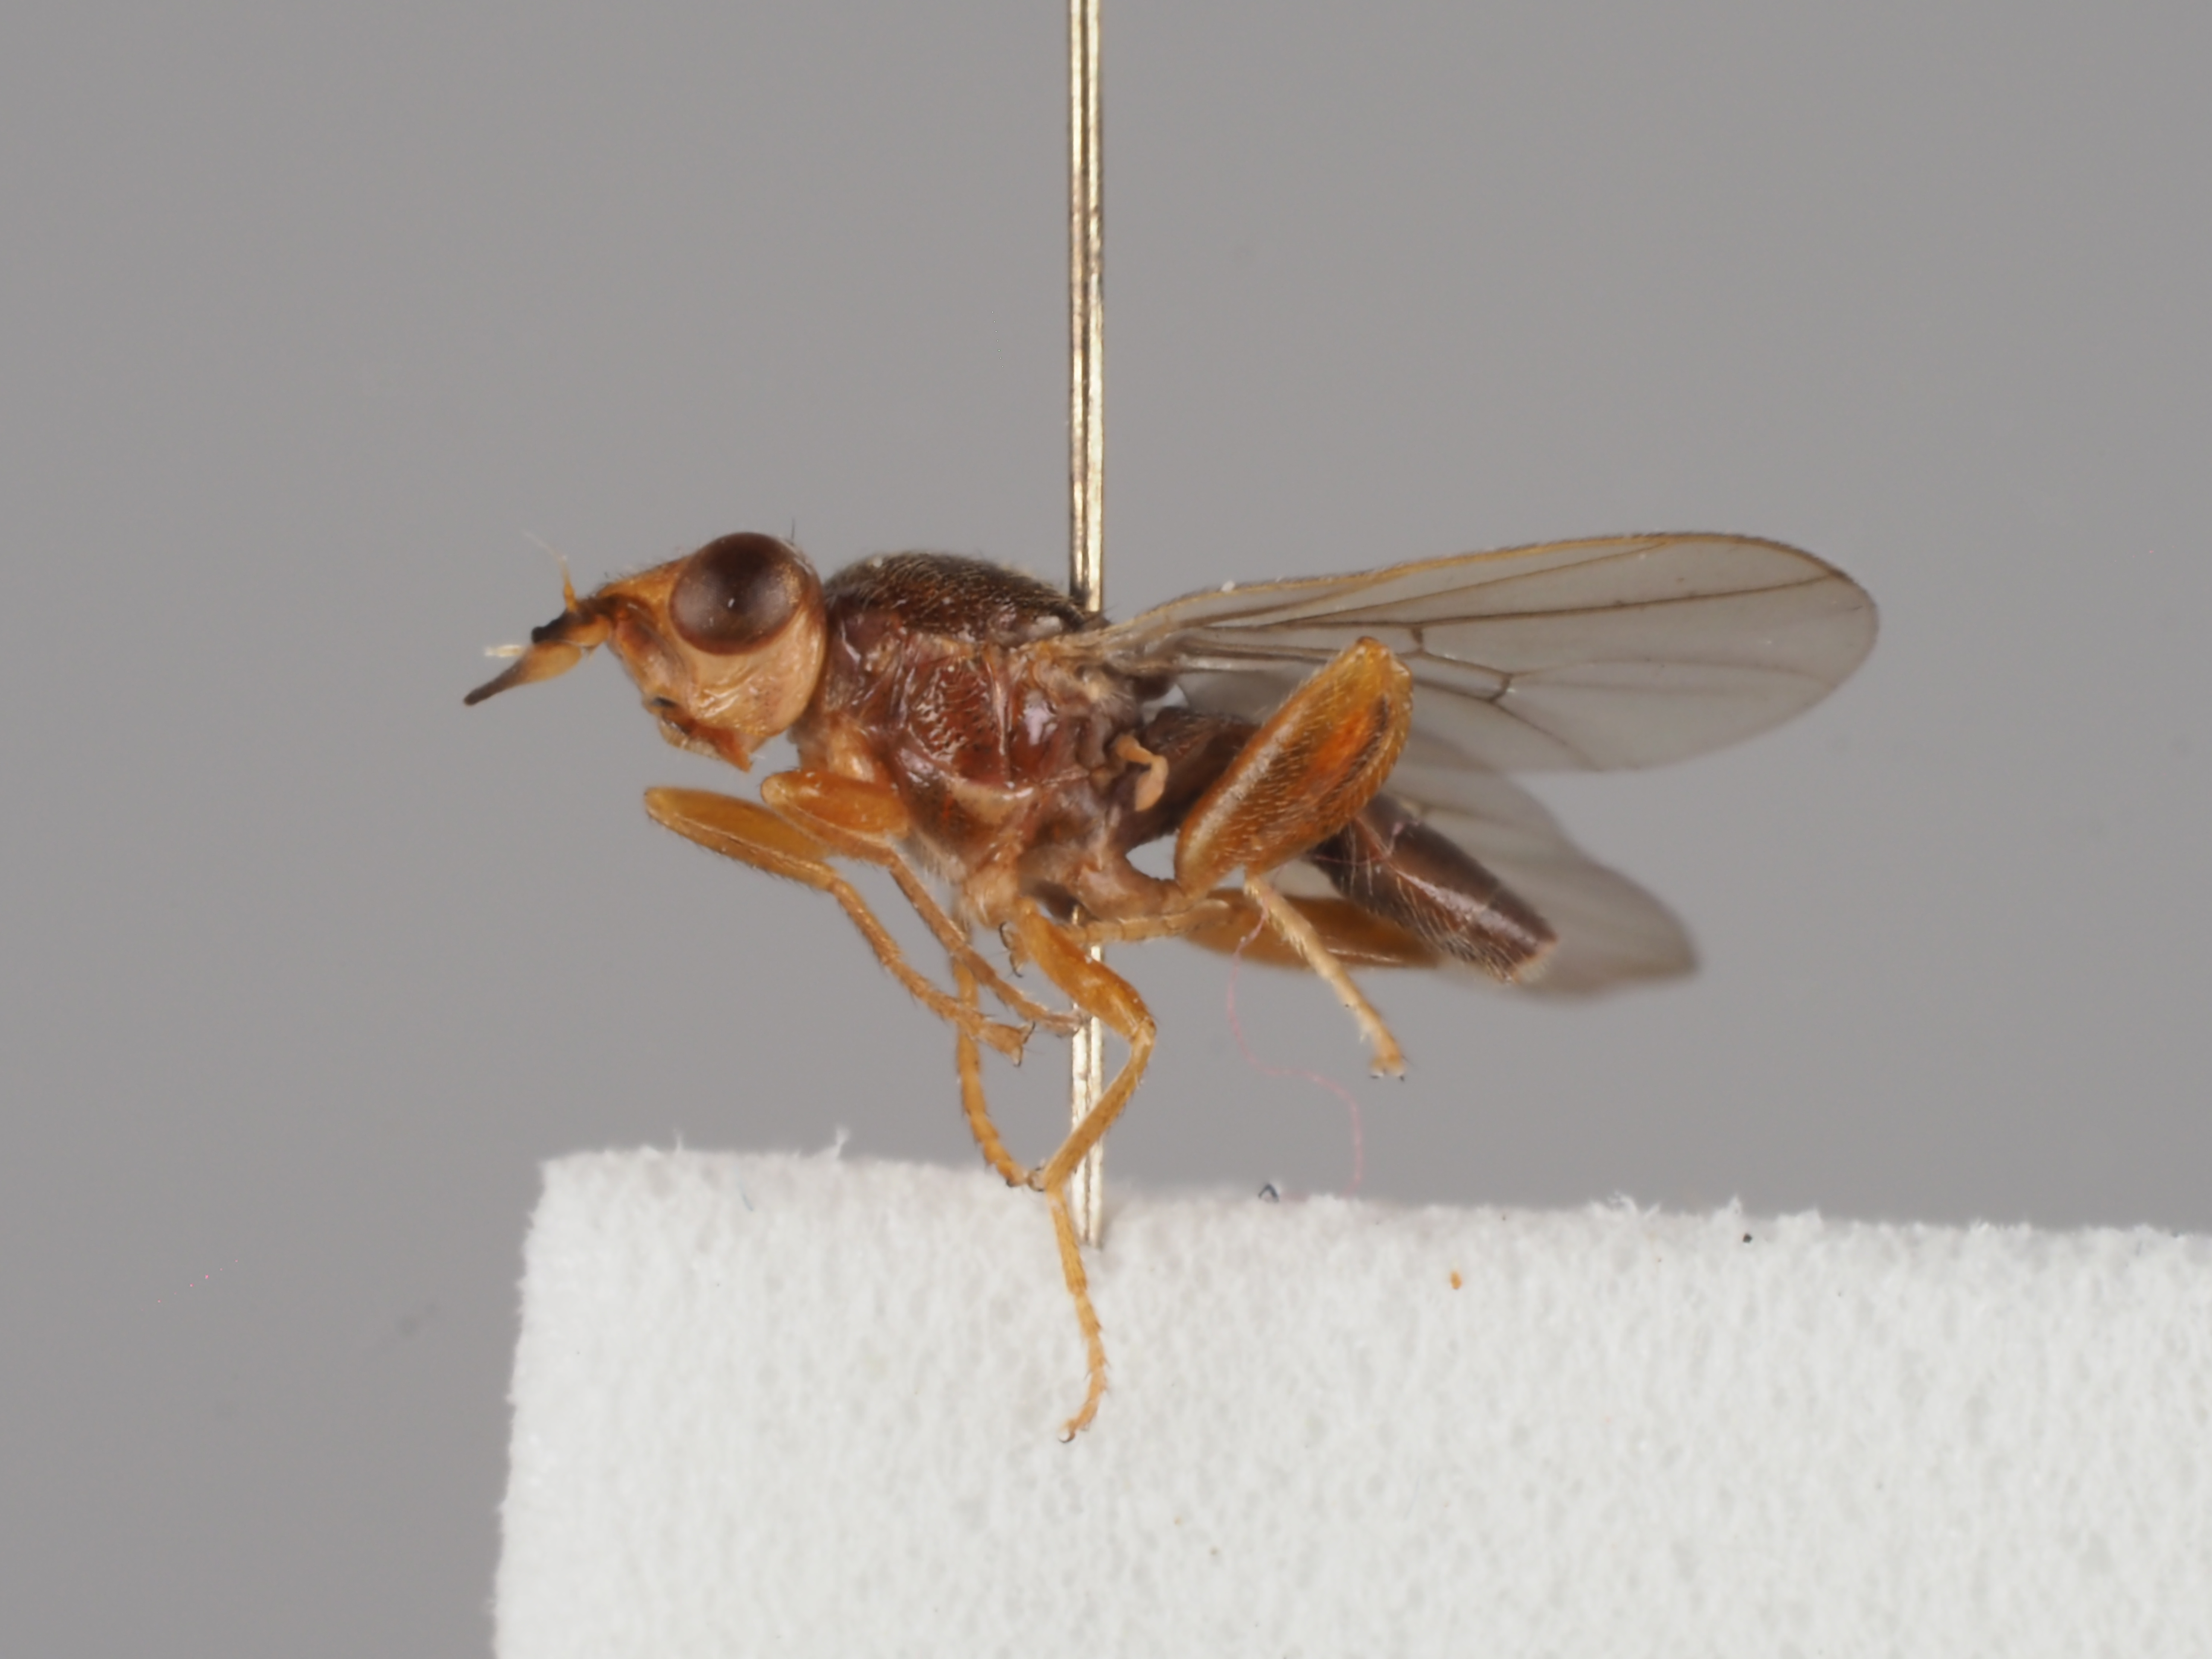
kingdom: Animalia
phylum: Arthropoda
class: Insecta
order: Diptera
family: Chloropidae
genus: Platycephala
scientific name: Platycephala umbraculata
